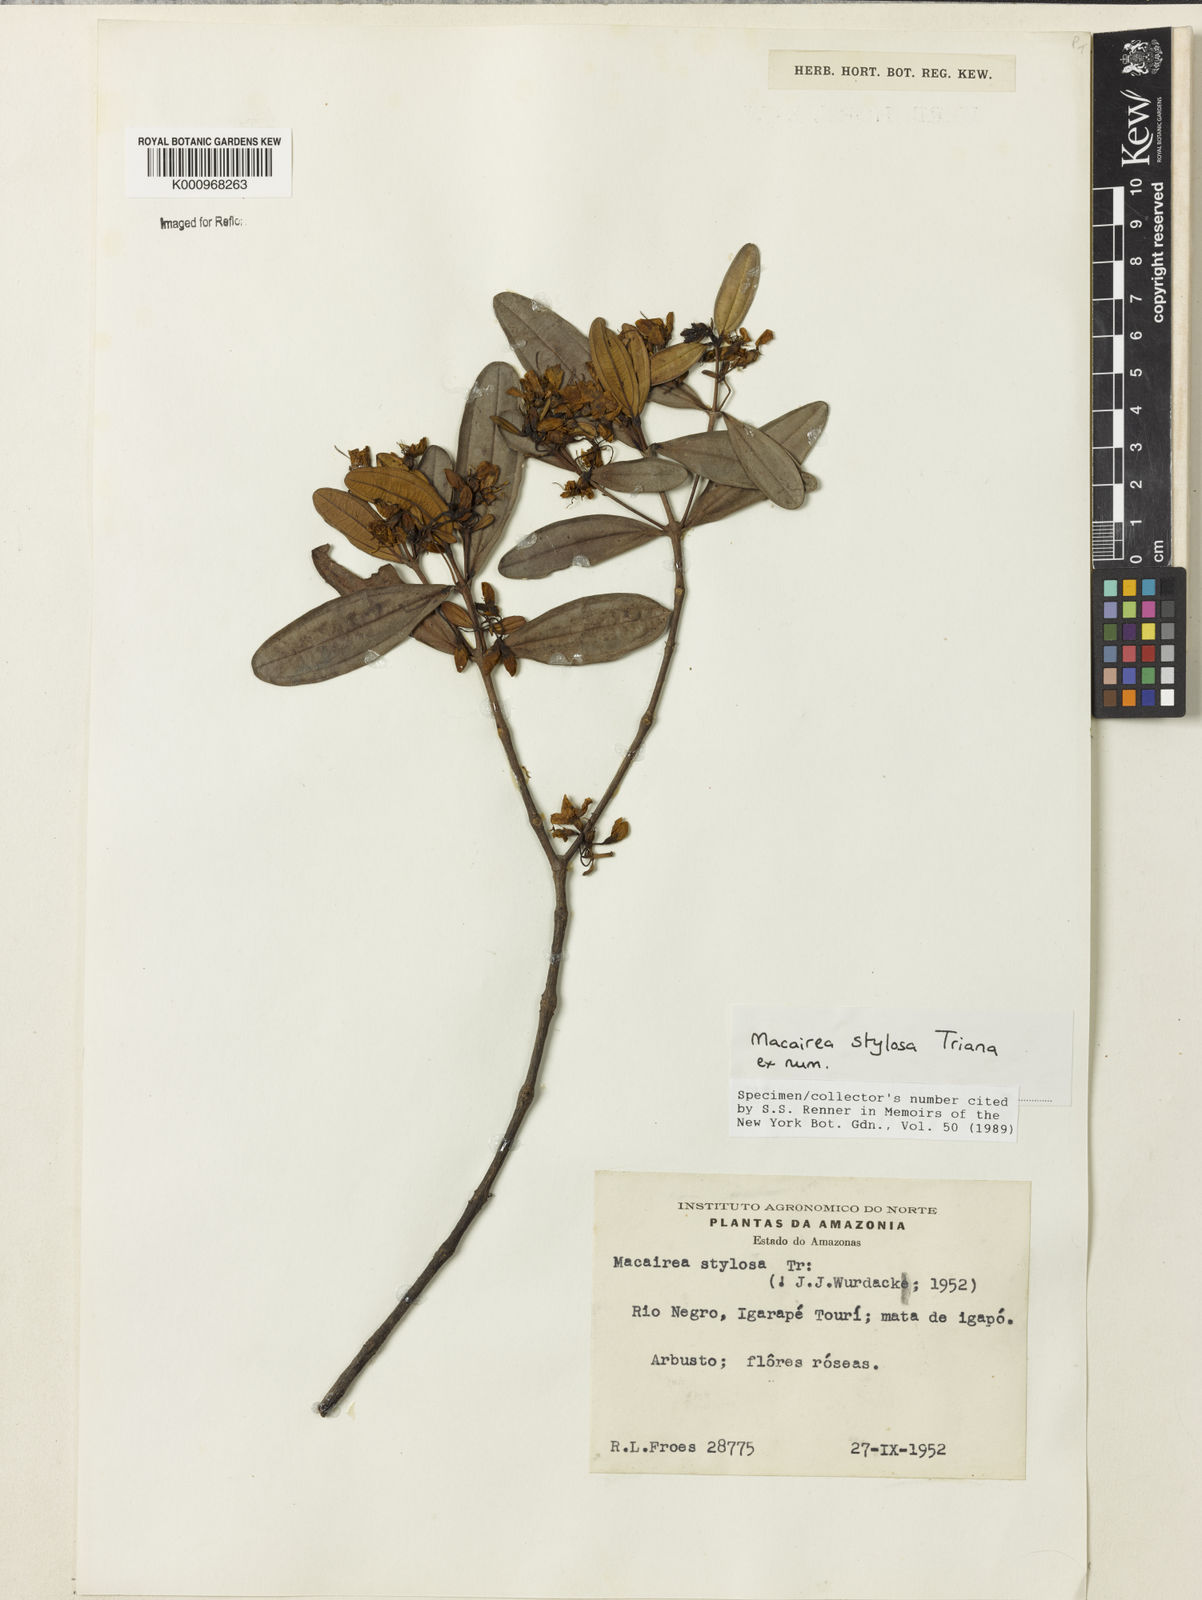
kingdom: Plantae
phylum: Tracheophyta
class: Magnoliopsida
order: Myrtales
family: Melastomataceae
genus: Macairea
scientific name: Macairea stylosa
